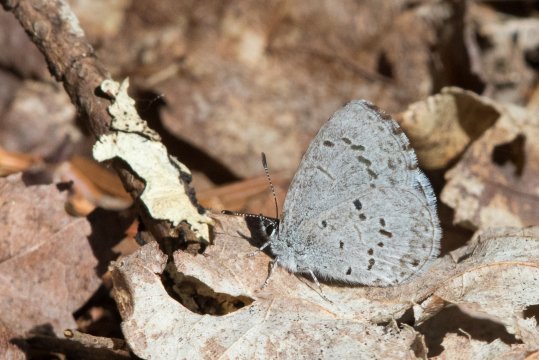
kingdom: Animalia
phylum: Arthropoda
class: Insecta
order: Lepidoptera
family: Lycaenidae
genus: Celastrina
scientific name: Celastrina lucia
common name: Northern Spring Azure
